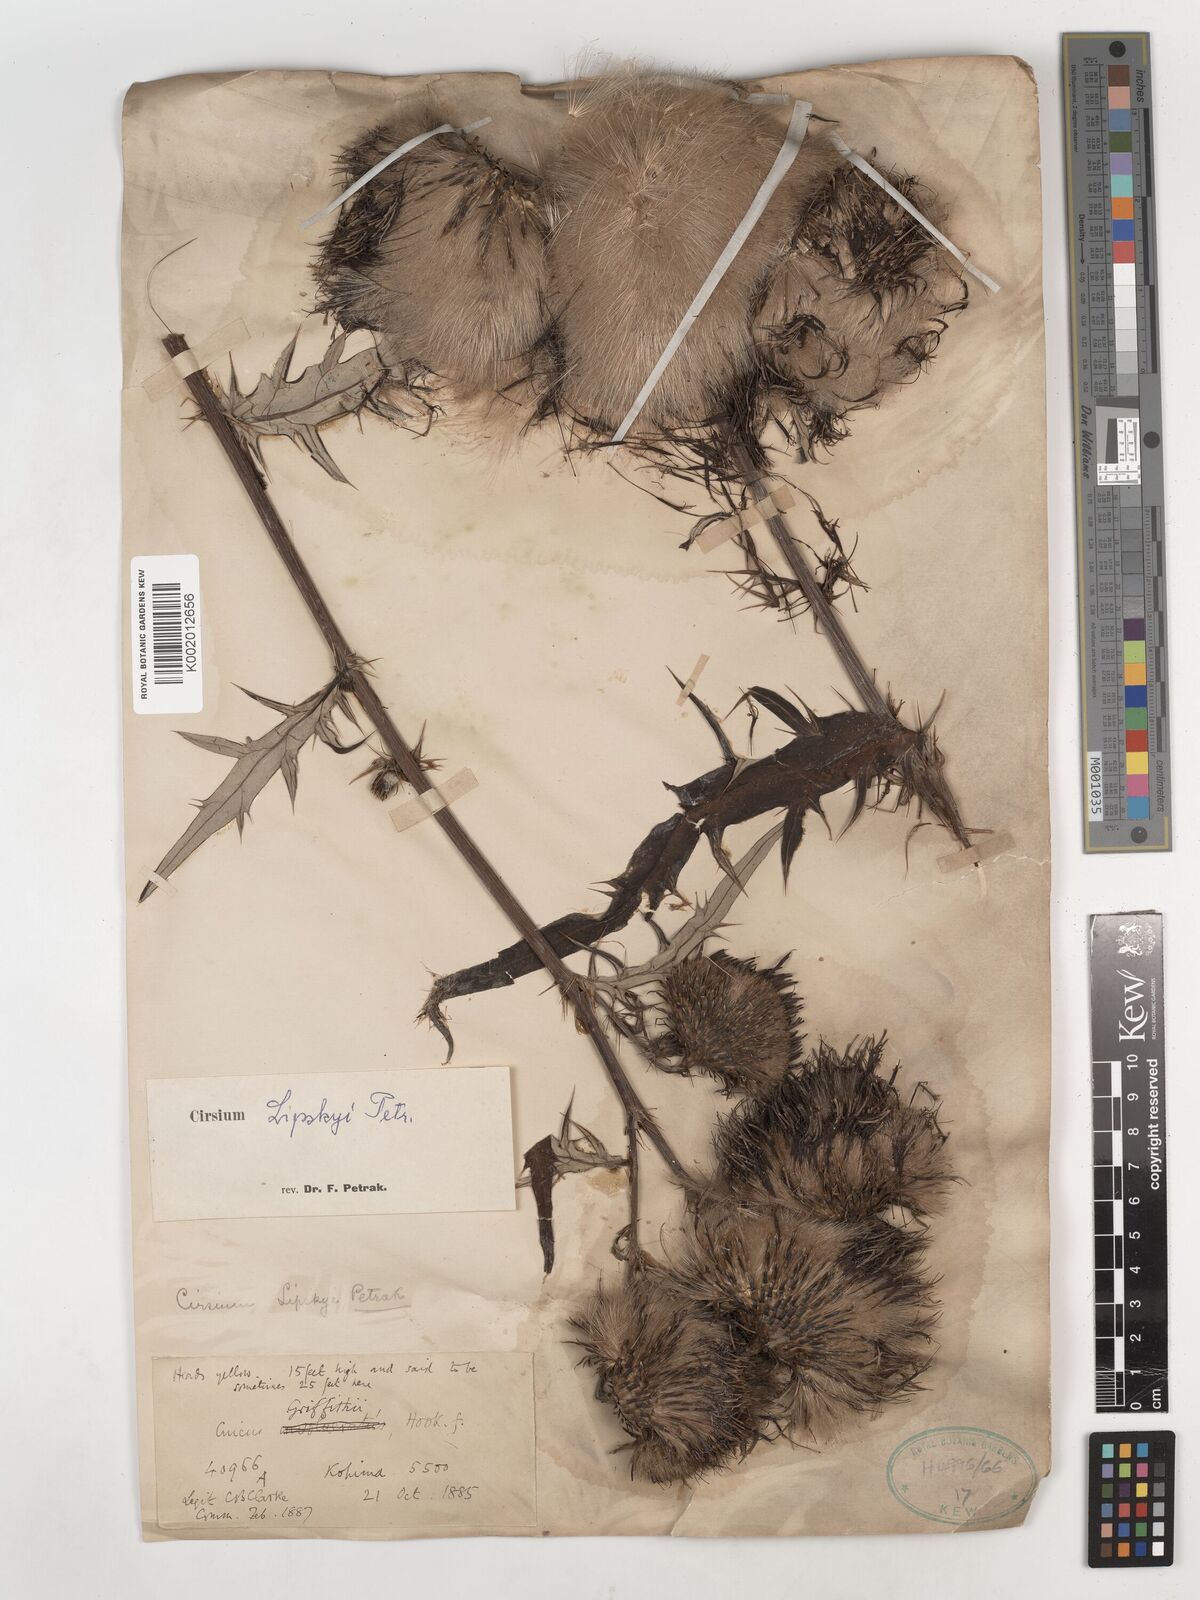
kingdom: Plantae
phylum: Tracheophyta
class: Magnoliopsida
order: Asterales
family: Asteraceae
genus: Cirsium
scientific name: Cirsium lipskyi
